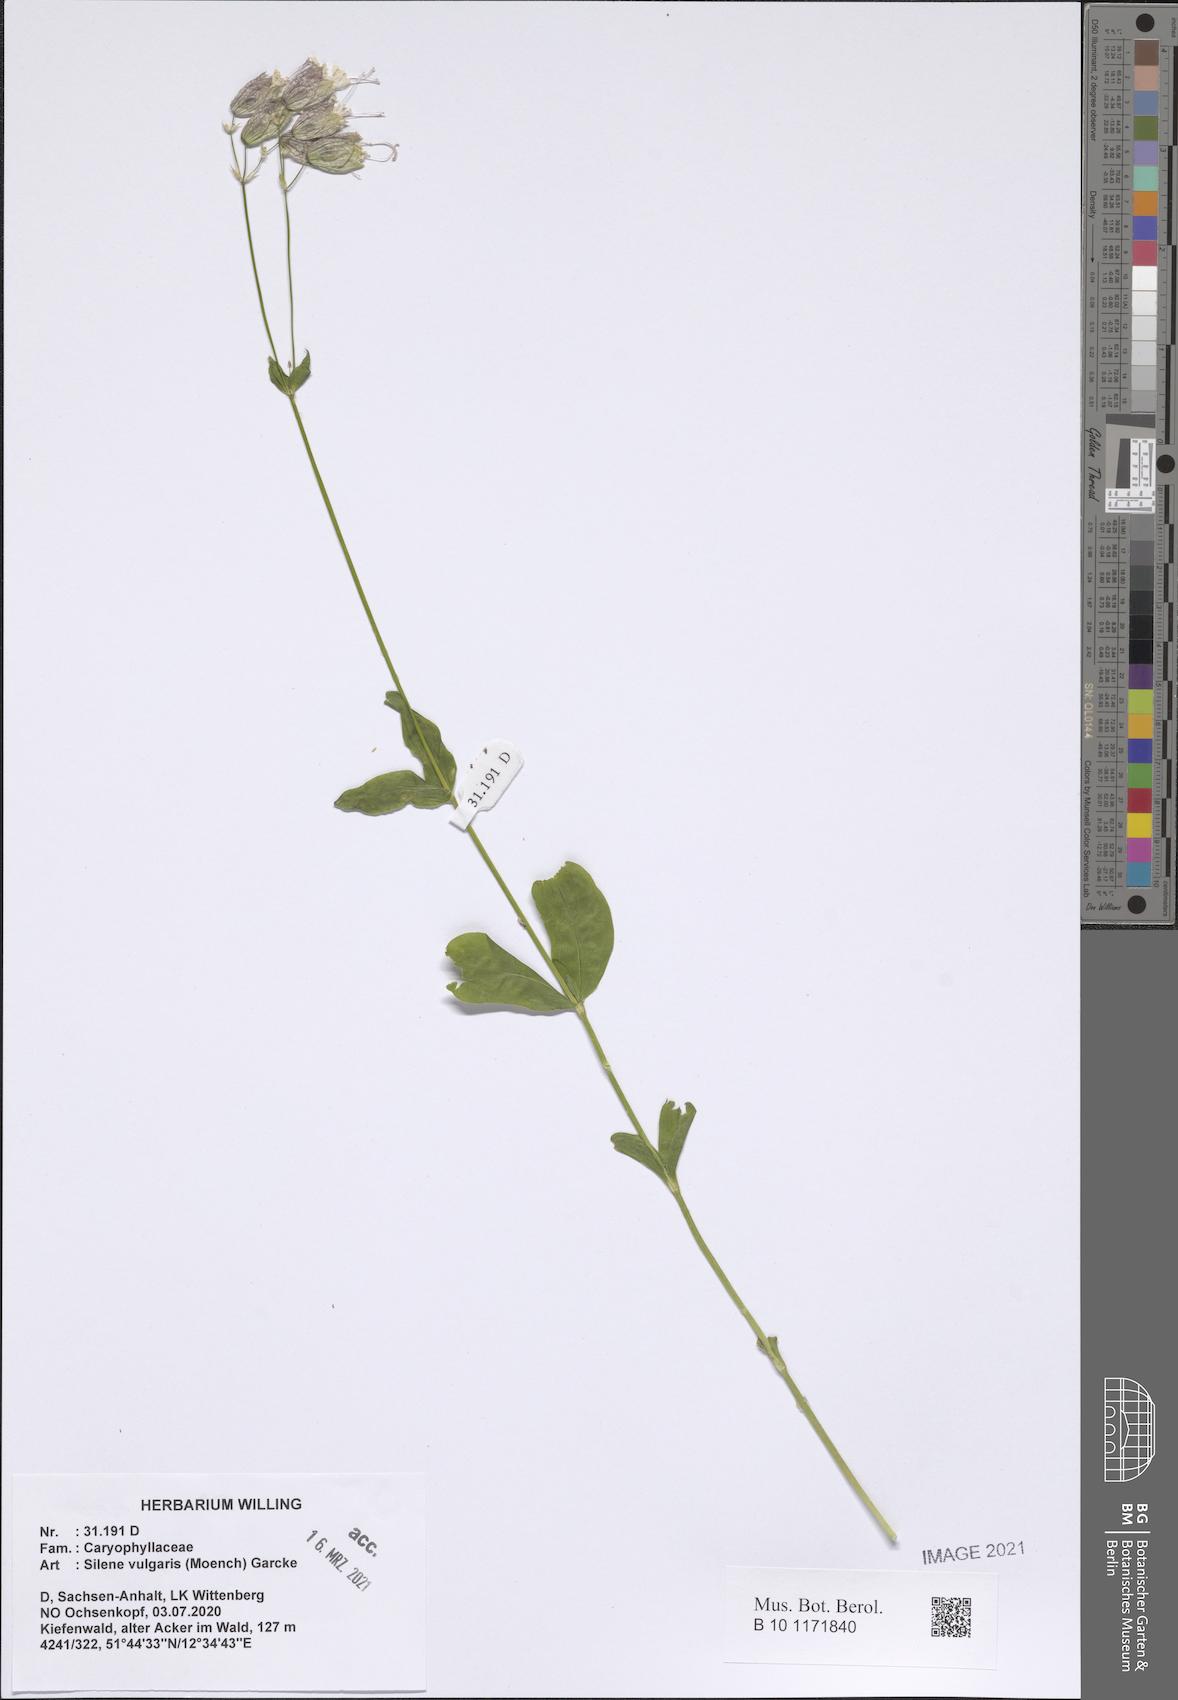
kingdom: Plantae
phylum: Tracheophyta
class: Magnoliopsida
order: Caryophyllales
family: Caryophyllaceae
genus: Silene
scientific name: Silene vulgaris
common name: Bladder campion
